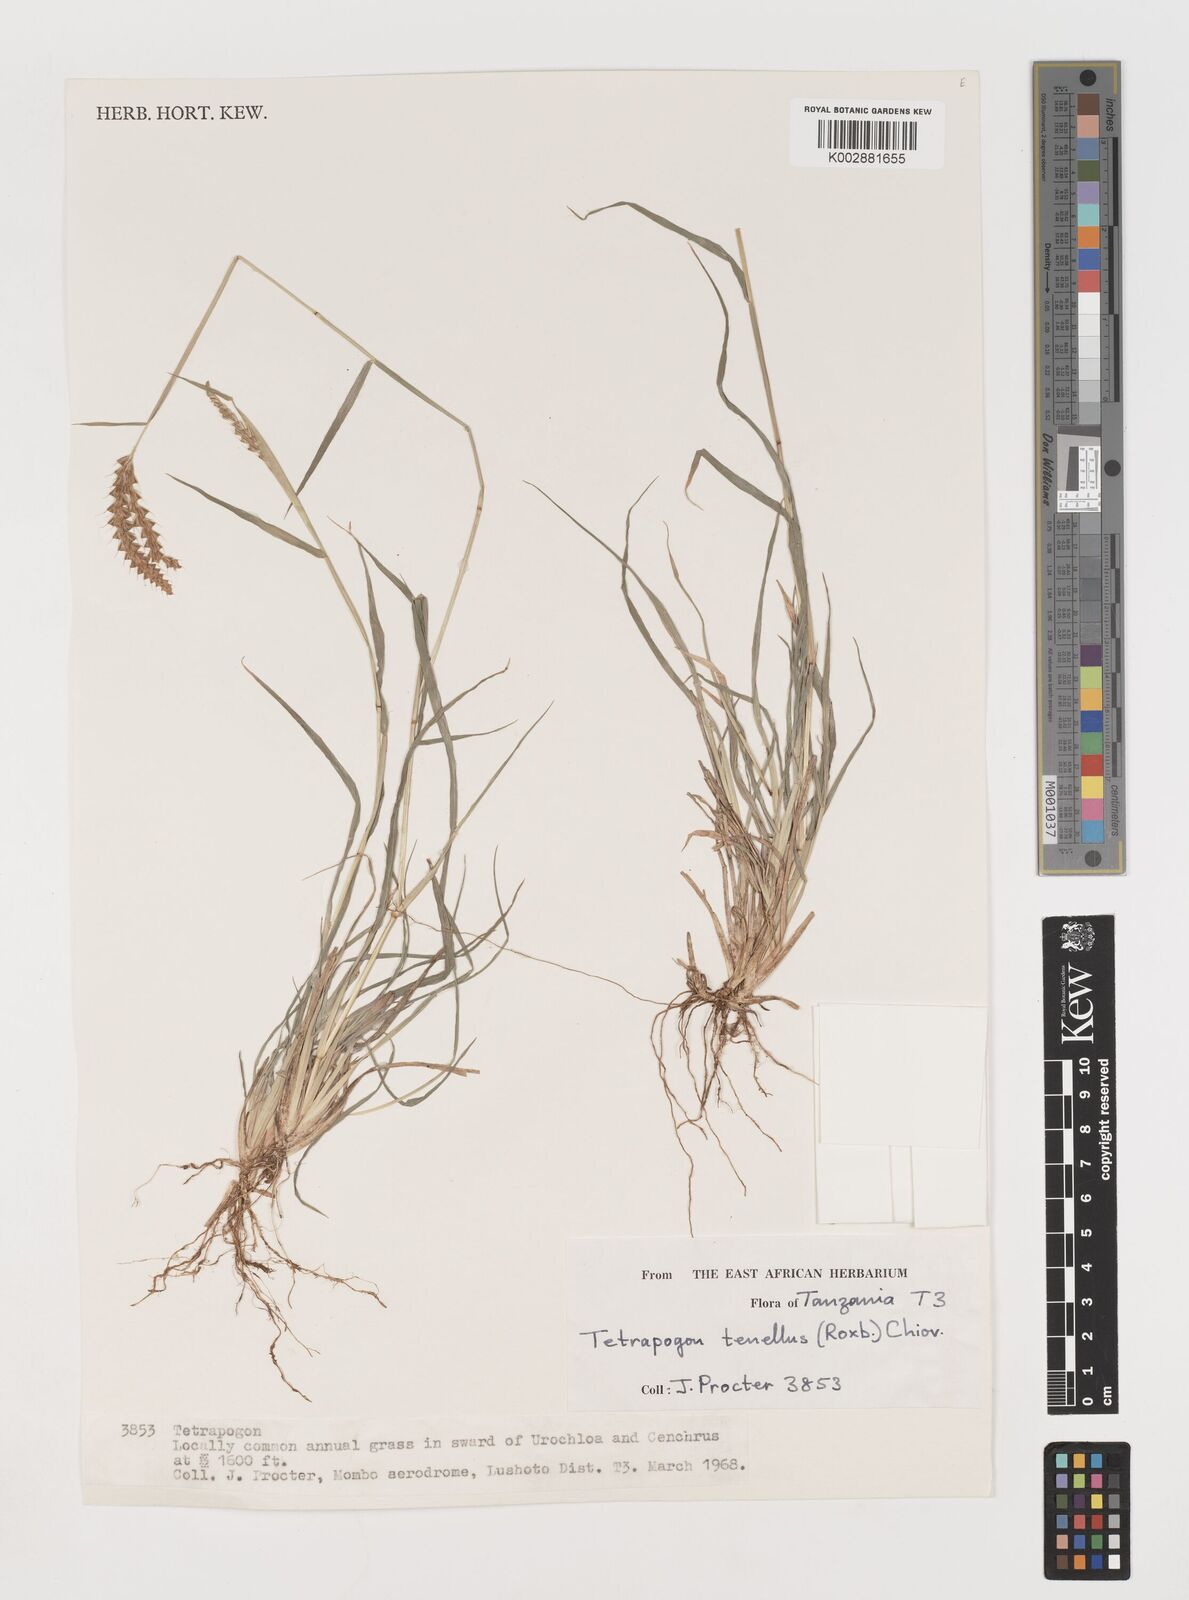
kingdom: Plantae
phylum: Tracheophyta
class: Liliopsida
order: Poales
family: Poaceae
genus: Tetrapogon
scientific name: Tetrapogon tenellus
